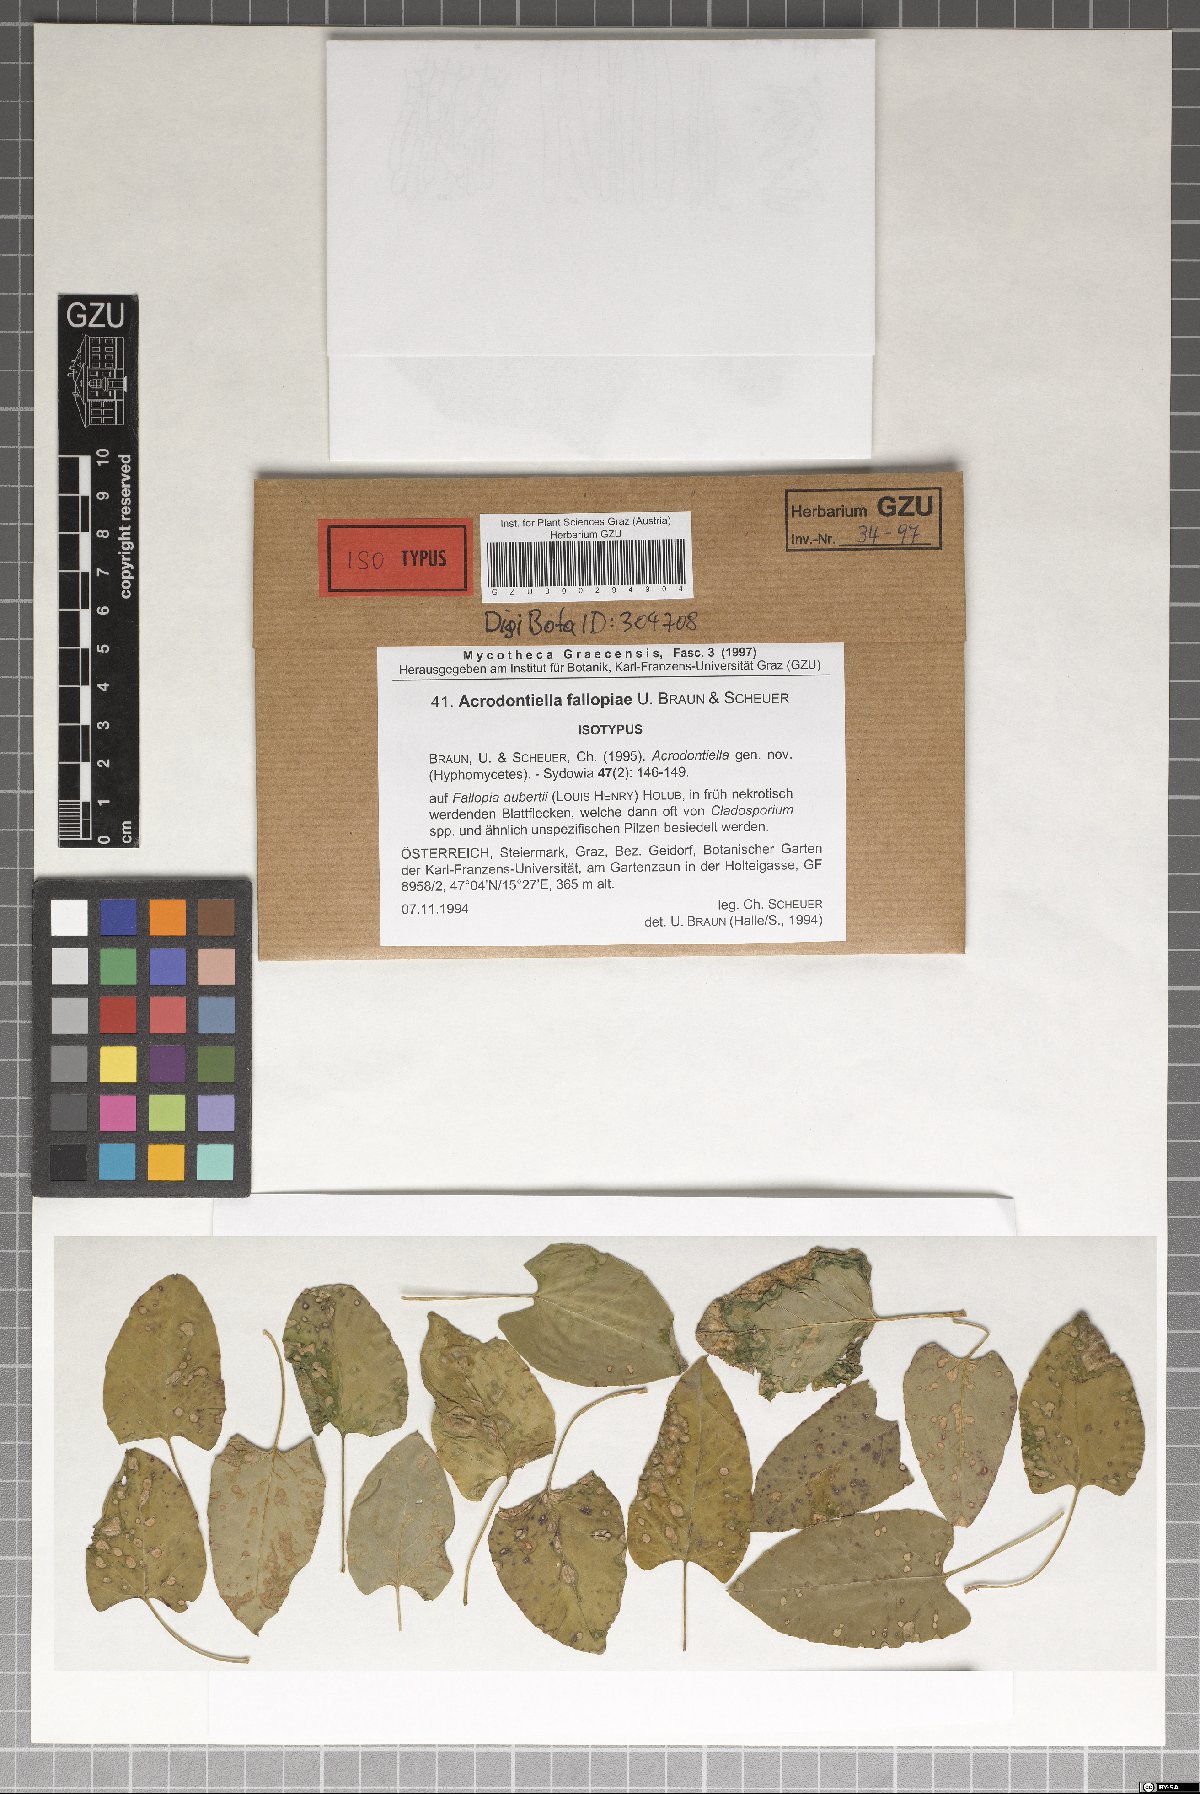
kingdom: Fungi
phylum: Ascomycota
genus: Acrodontiella
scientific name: Acrodontiella fallopiae
